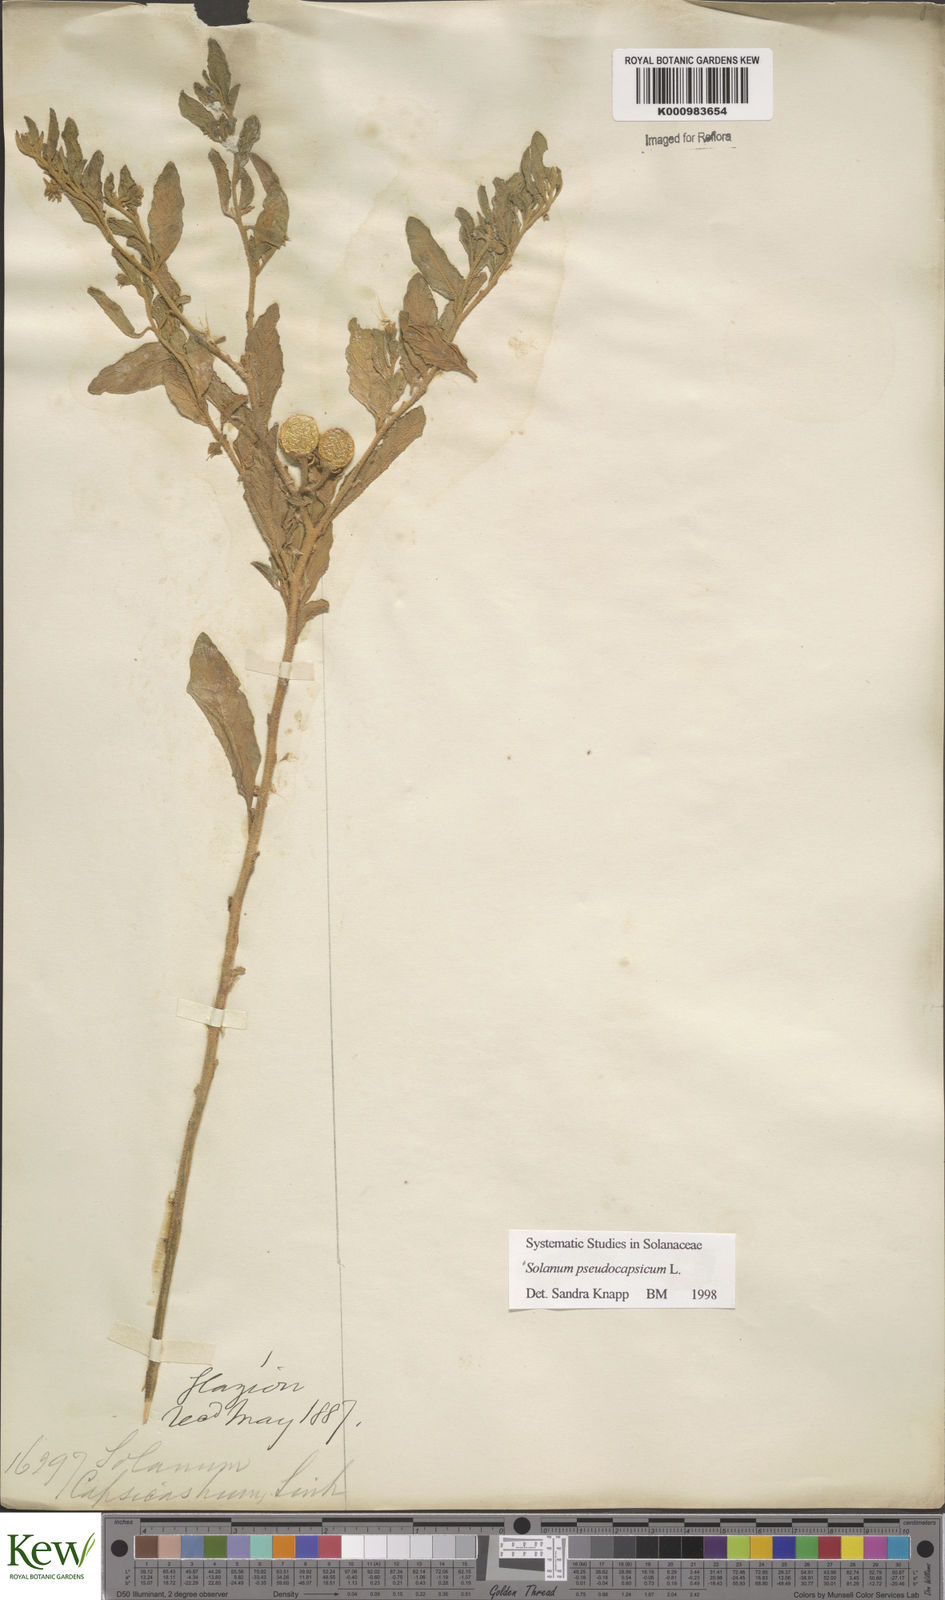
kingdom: Plantae
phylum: Tracheophyta
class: Magnoliopsida
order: Solanales
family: Solanaceae
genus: Solanum
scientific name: Solanum pseudocapsicum
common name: Jerusalem cherry
